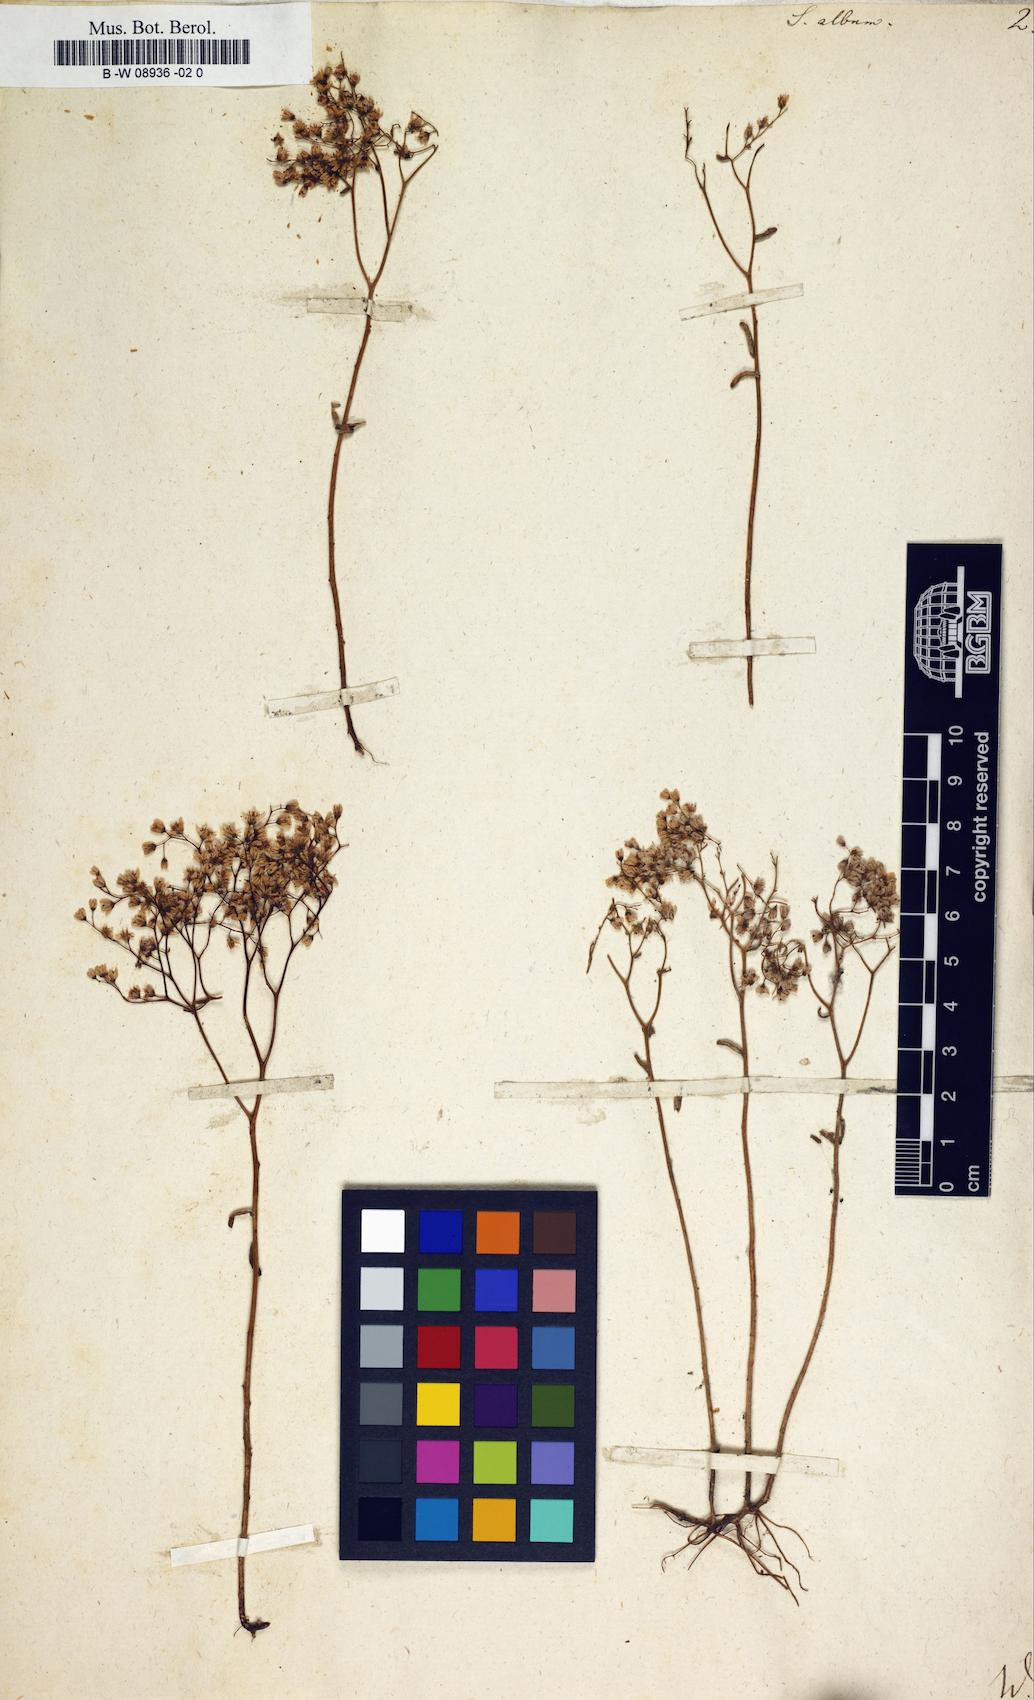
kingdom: Plantae
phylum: Tracheophyta
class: Magnoliopsida
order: Saxifragales
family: Crassulaceae
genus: Sedum
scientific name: Sedum album
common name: White stonecrop
